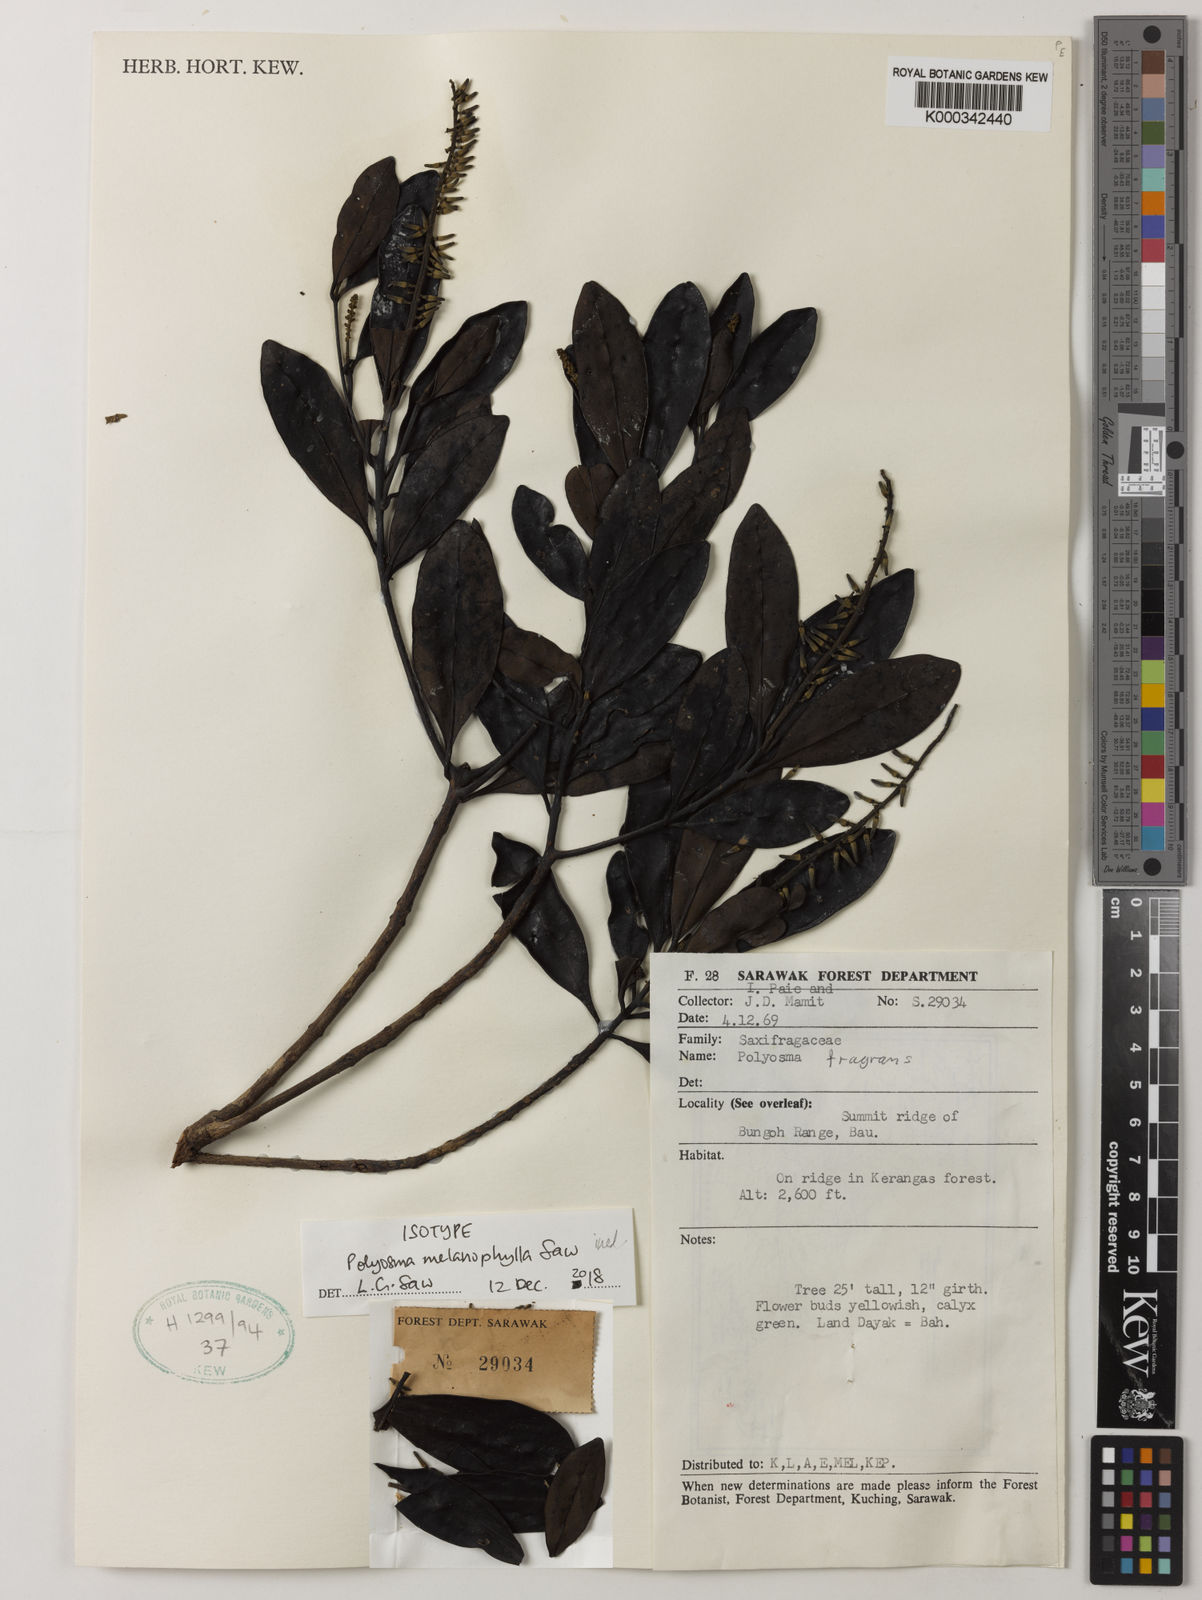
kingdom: Plantae
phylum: Tracheophyta
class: Magnoliopsida
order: Escalloniales
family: Escalloniaceae
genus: Polyosma
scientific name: Polyosma
